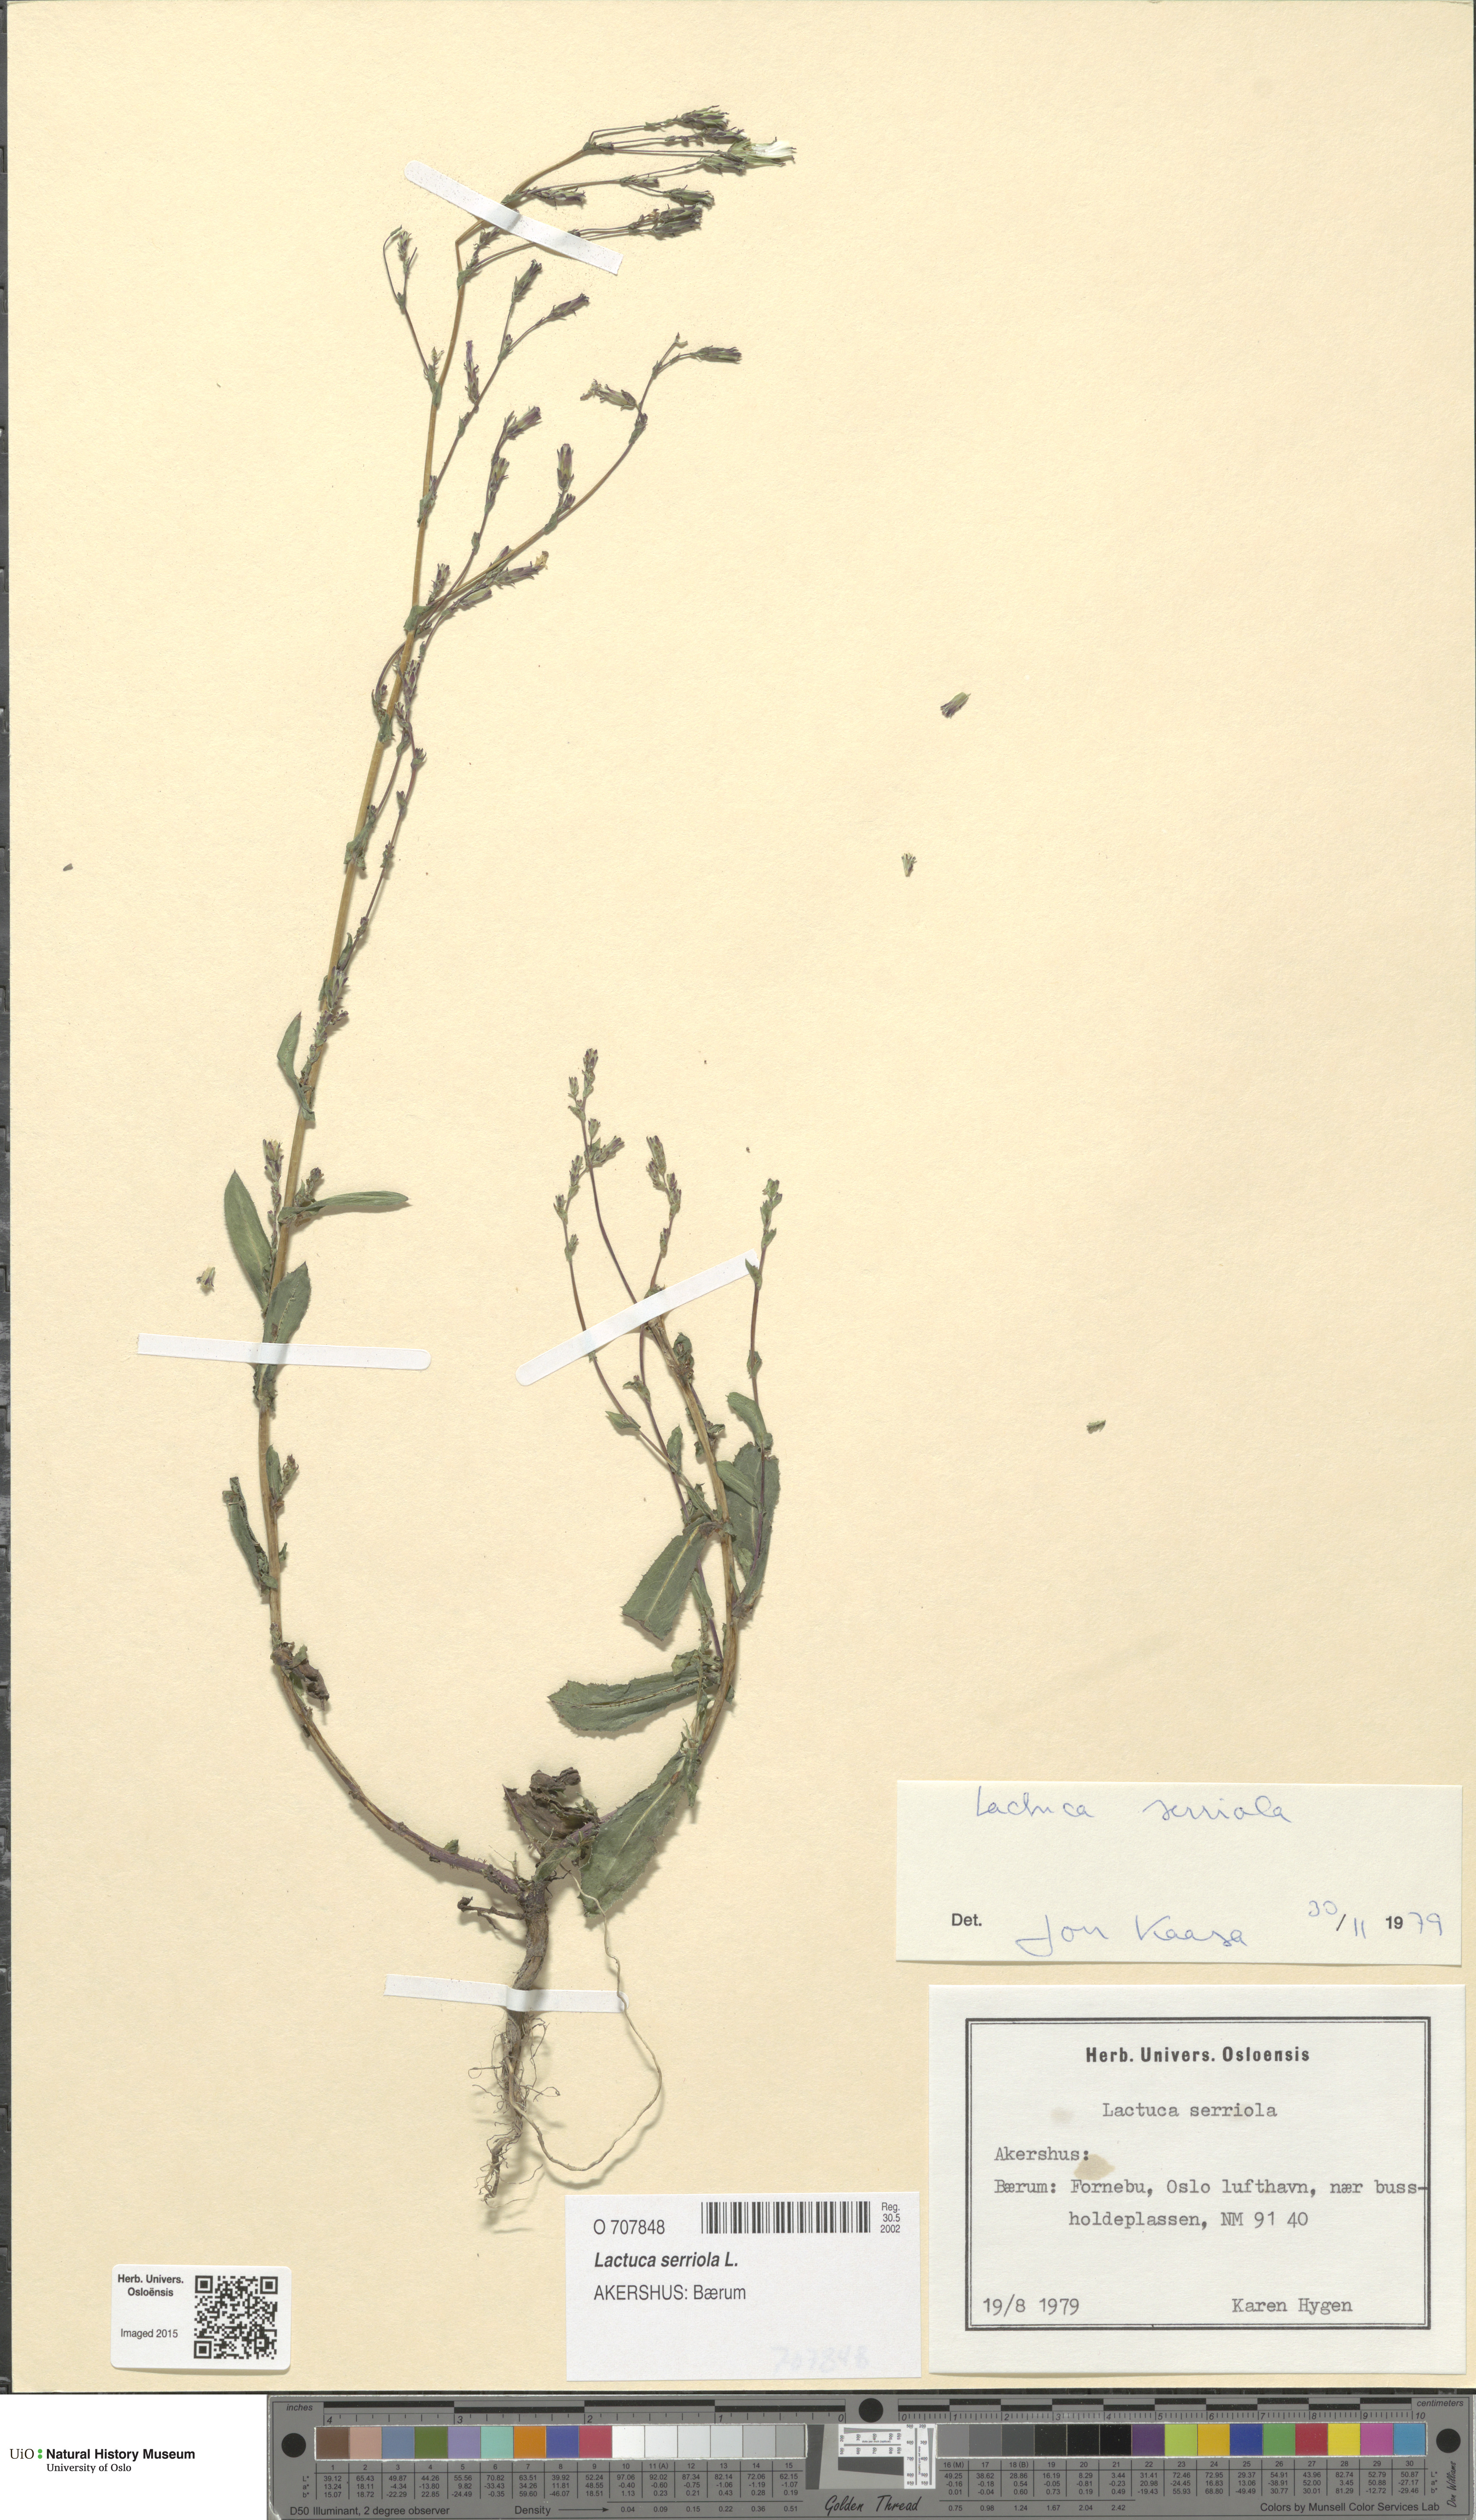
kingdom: Plantae
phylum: Tracheophyta
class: Magnoliopsida
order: Asterales
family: Asteraceae
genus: Lactuca
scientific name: Lactuca serriola
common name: Prickly lettuce
